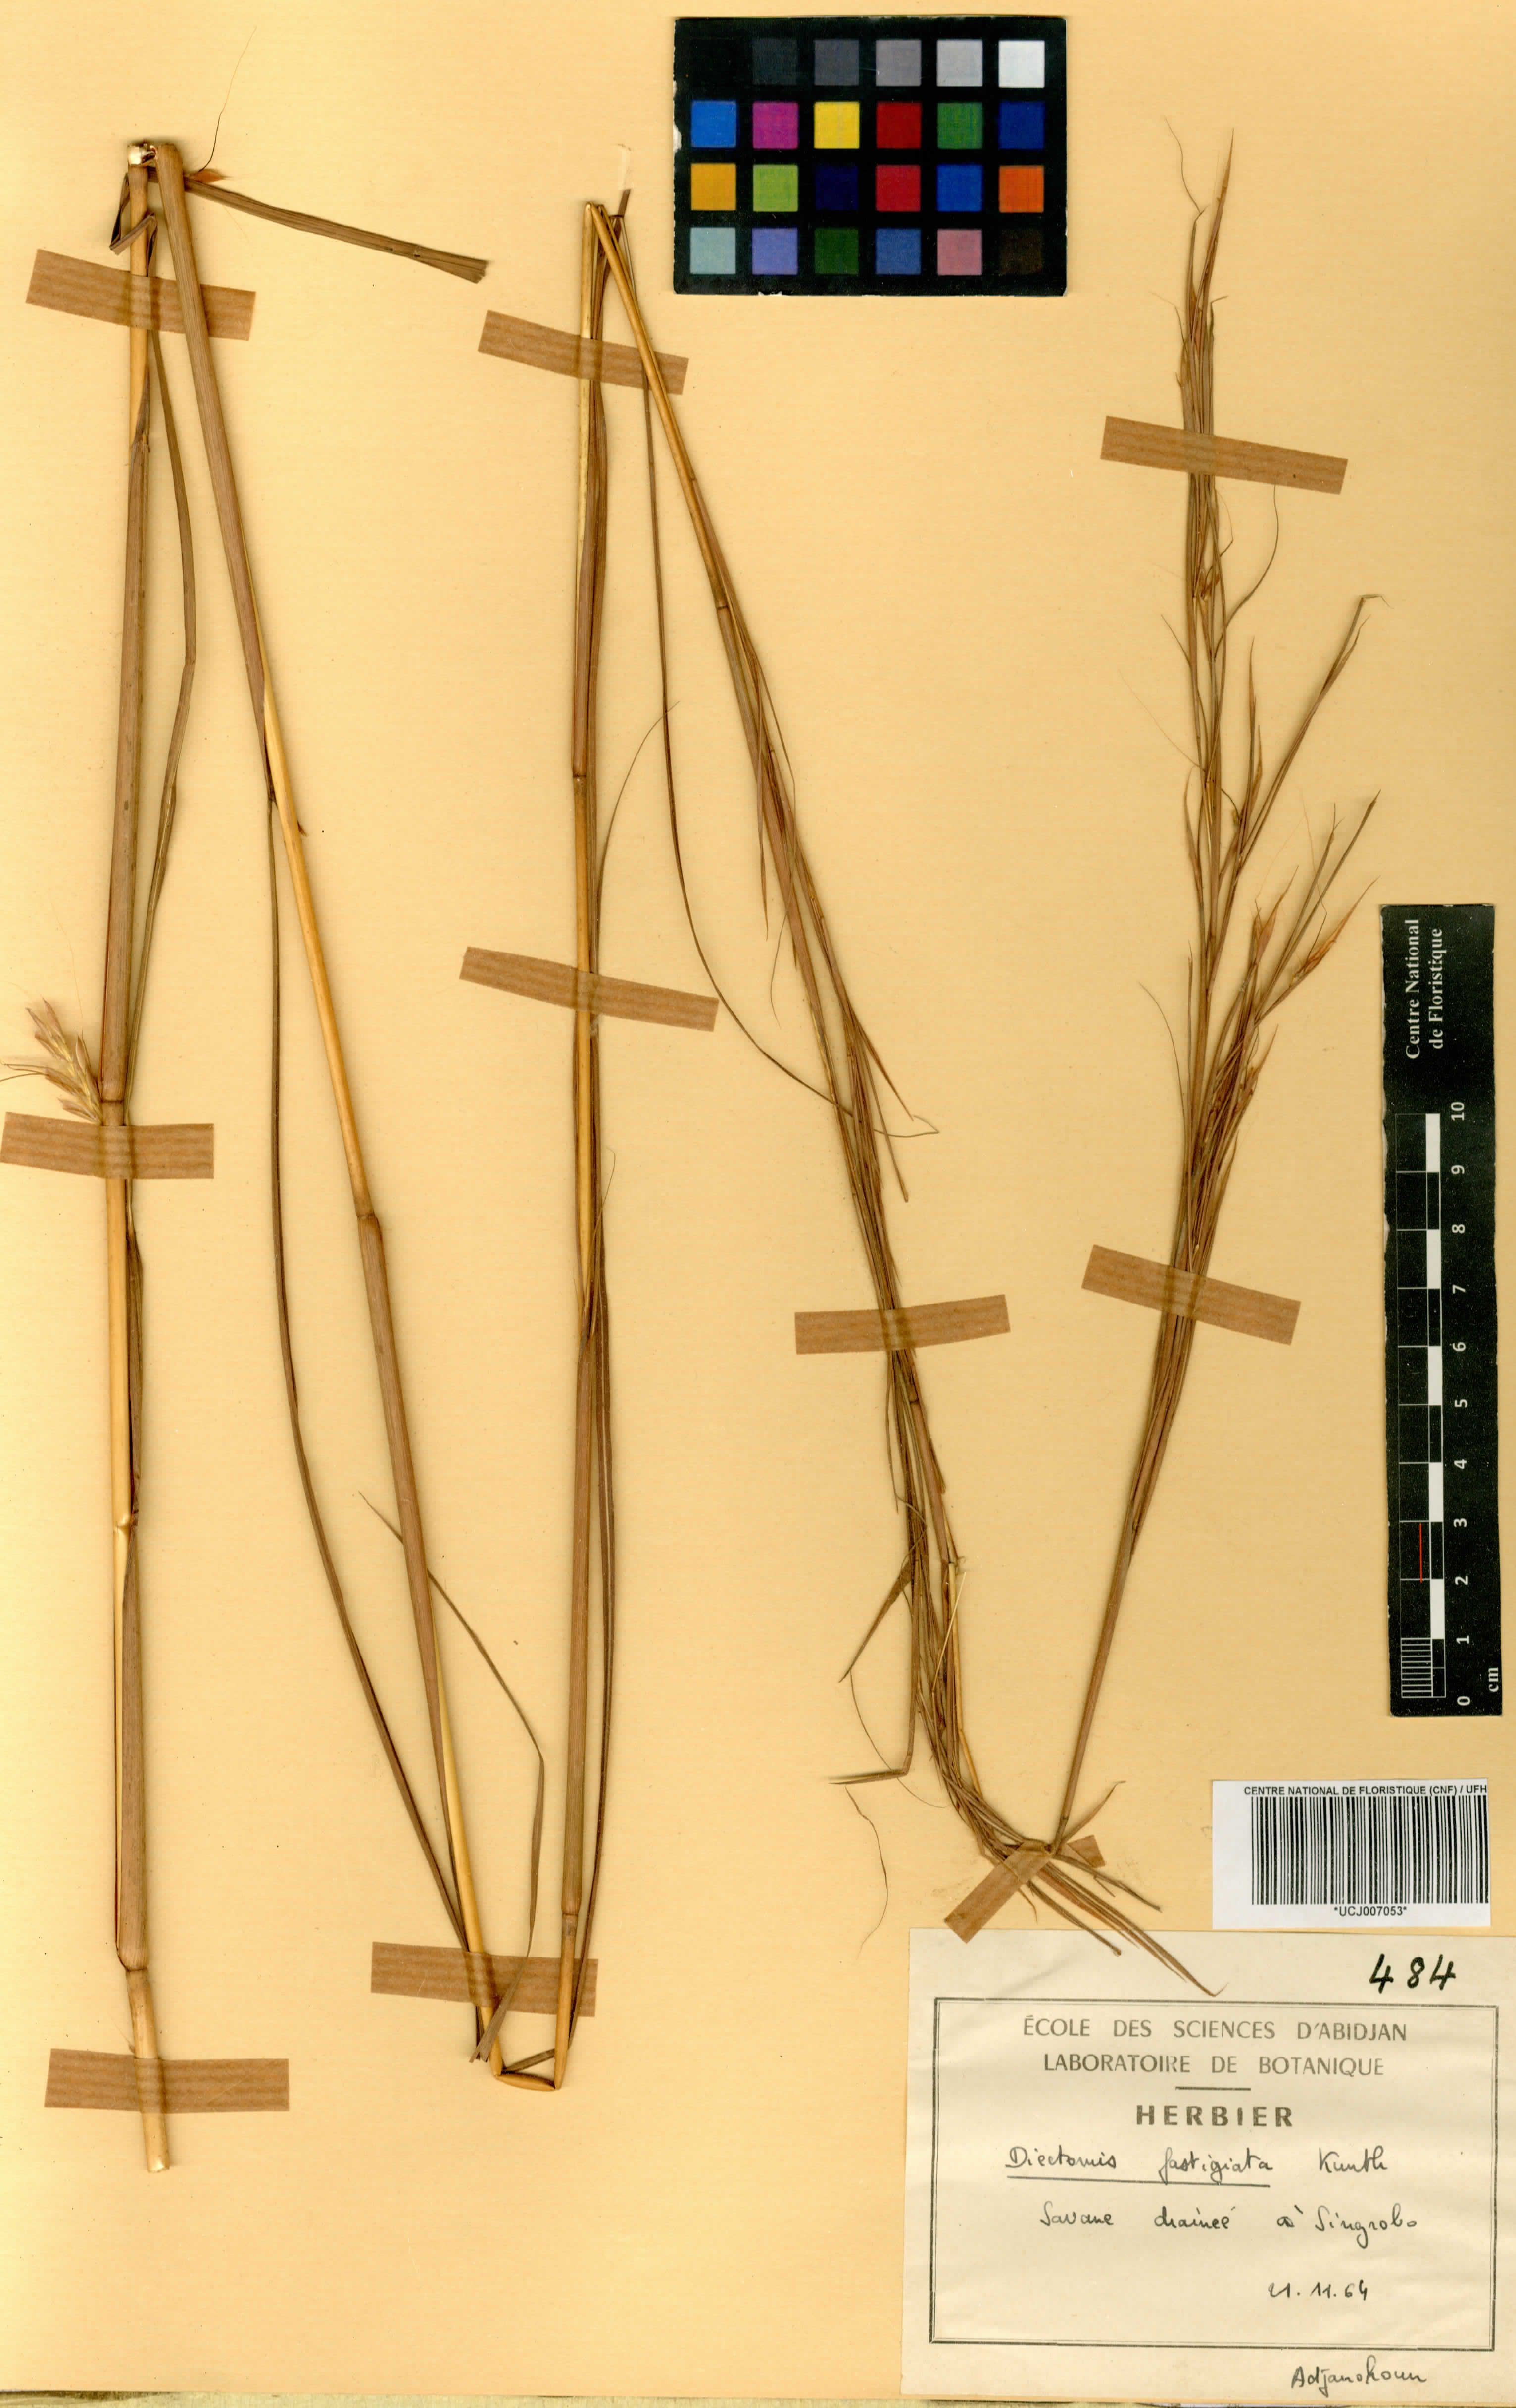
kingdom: Plantae
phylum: Tracheophyta
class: Liliopsida
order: Poales
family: Poaceae
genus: Diectomis
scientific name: Diectomis fastigiata
